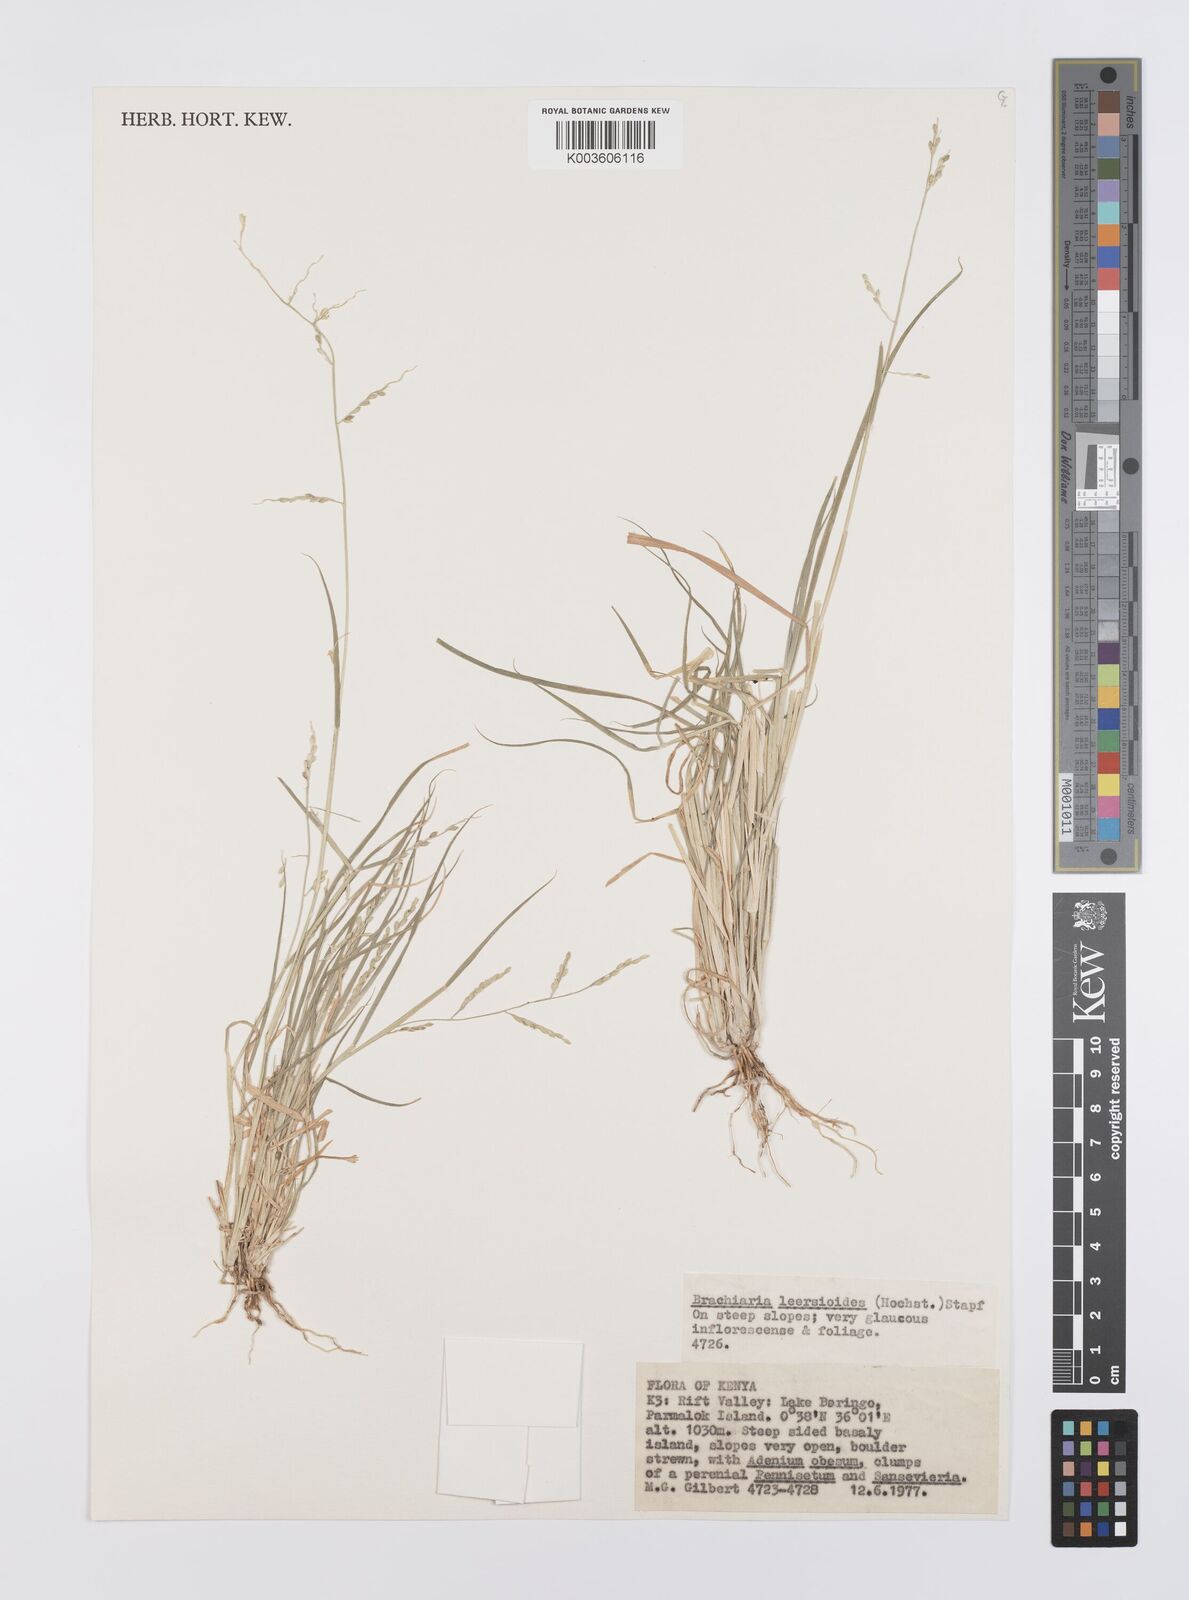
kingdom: Plantae
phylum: Tracheophyta
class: Liliopsida
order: Poales
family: Poaceae
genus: Urochloa
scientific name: Urochloa leersioides
